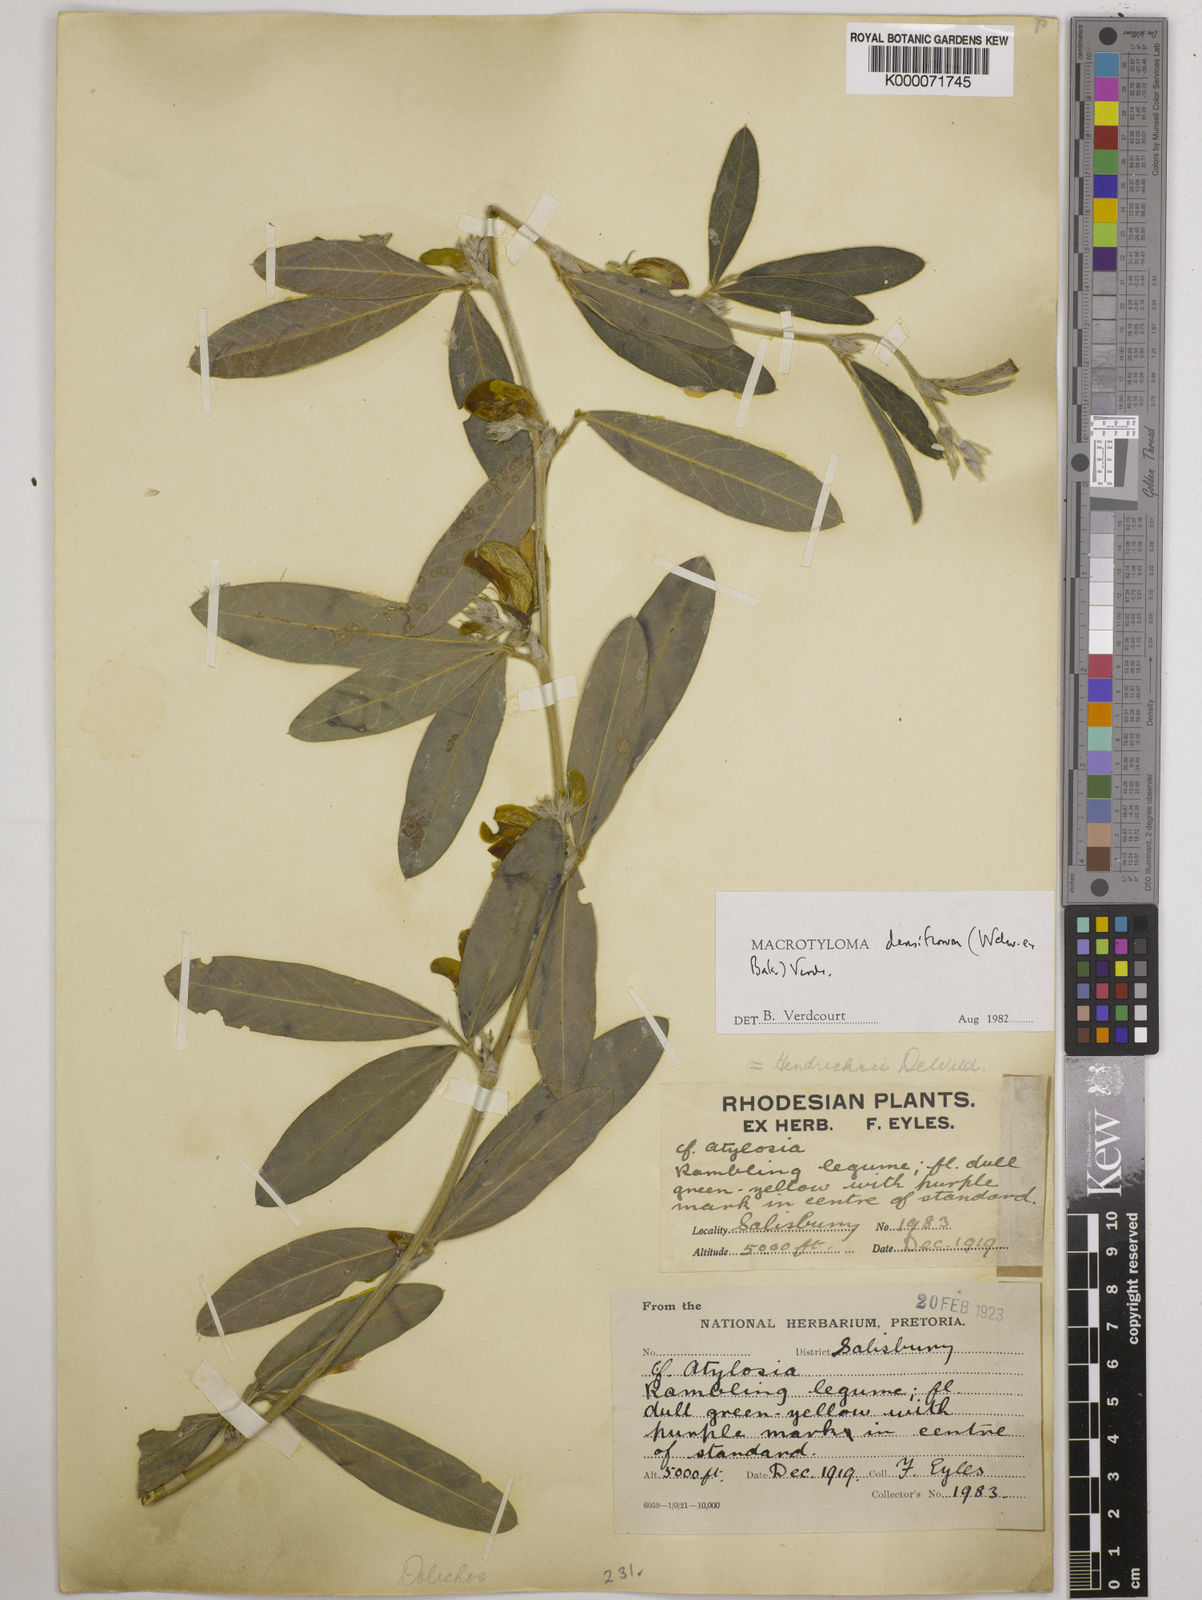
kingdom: Plantae
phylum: Tracheophyta
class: Magnoliopsida
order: Fabales
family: Fabaceae
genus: Macrotyloma
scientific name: Macrotyloma densiflorum
